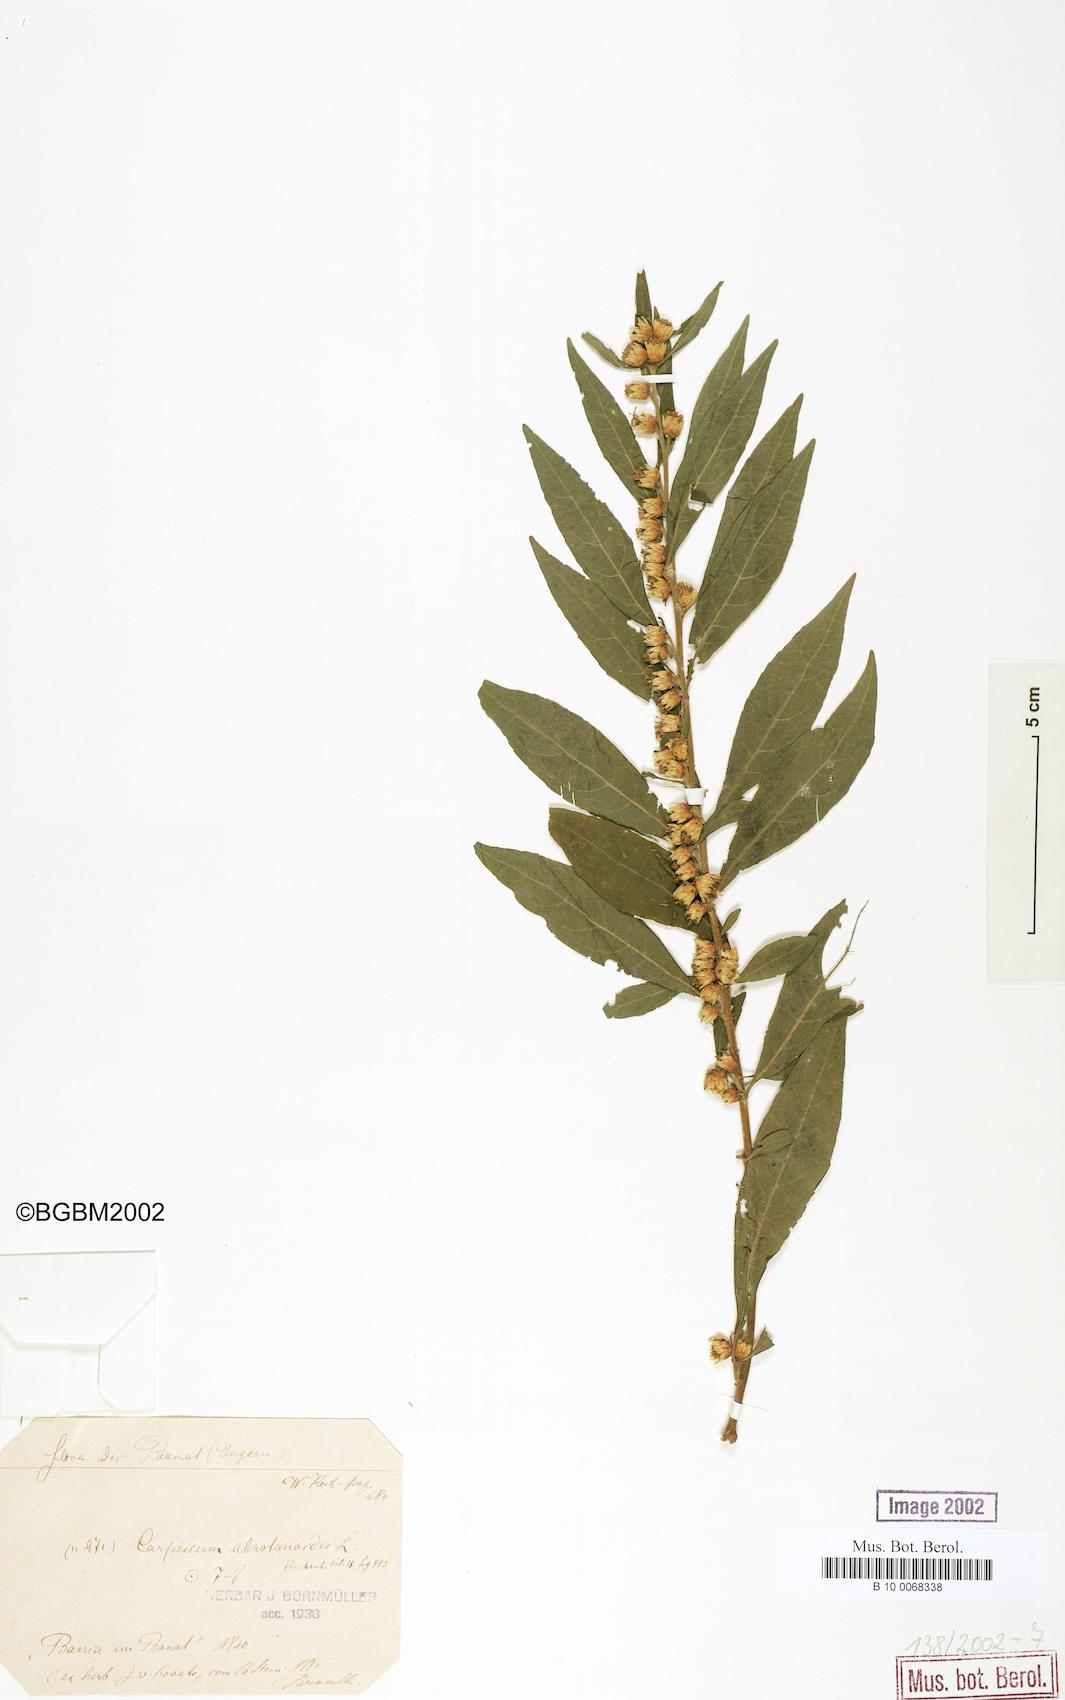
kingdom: Plantae
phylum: Tracheophyta
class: Magnoliopsida
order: Asterales
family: Asteraceae
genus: Carpesium
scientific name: Carpesium abrotanoides
